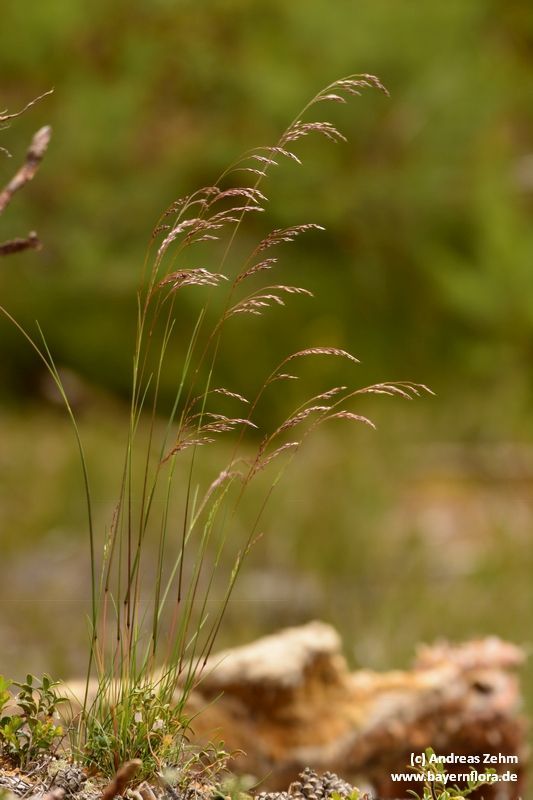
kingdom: Plantae
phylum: Tracheophyta
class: Liliopsida
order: Poales
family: Poaceae
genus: Avenella
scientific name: Avenella flexuosa
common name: Wavy hairgrass
